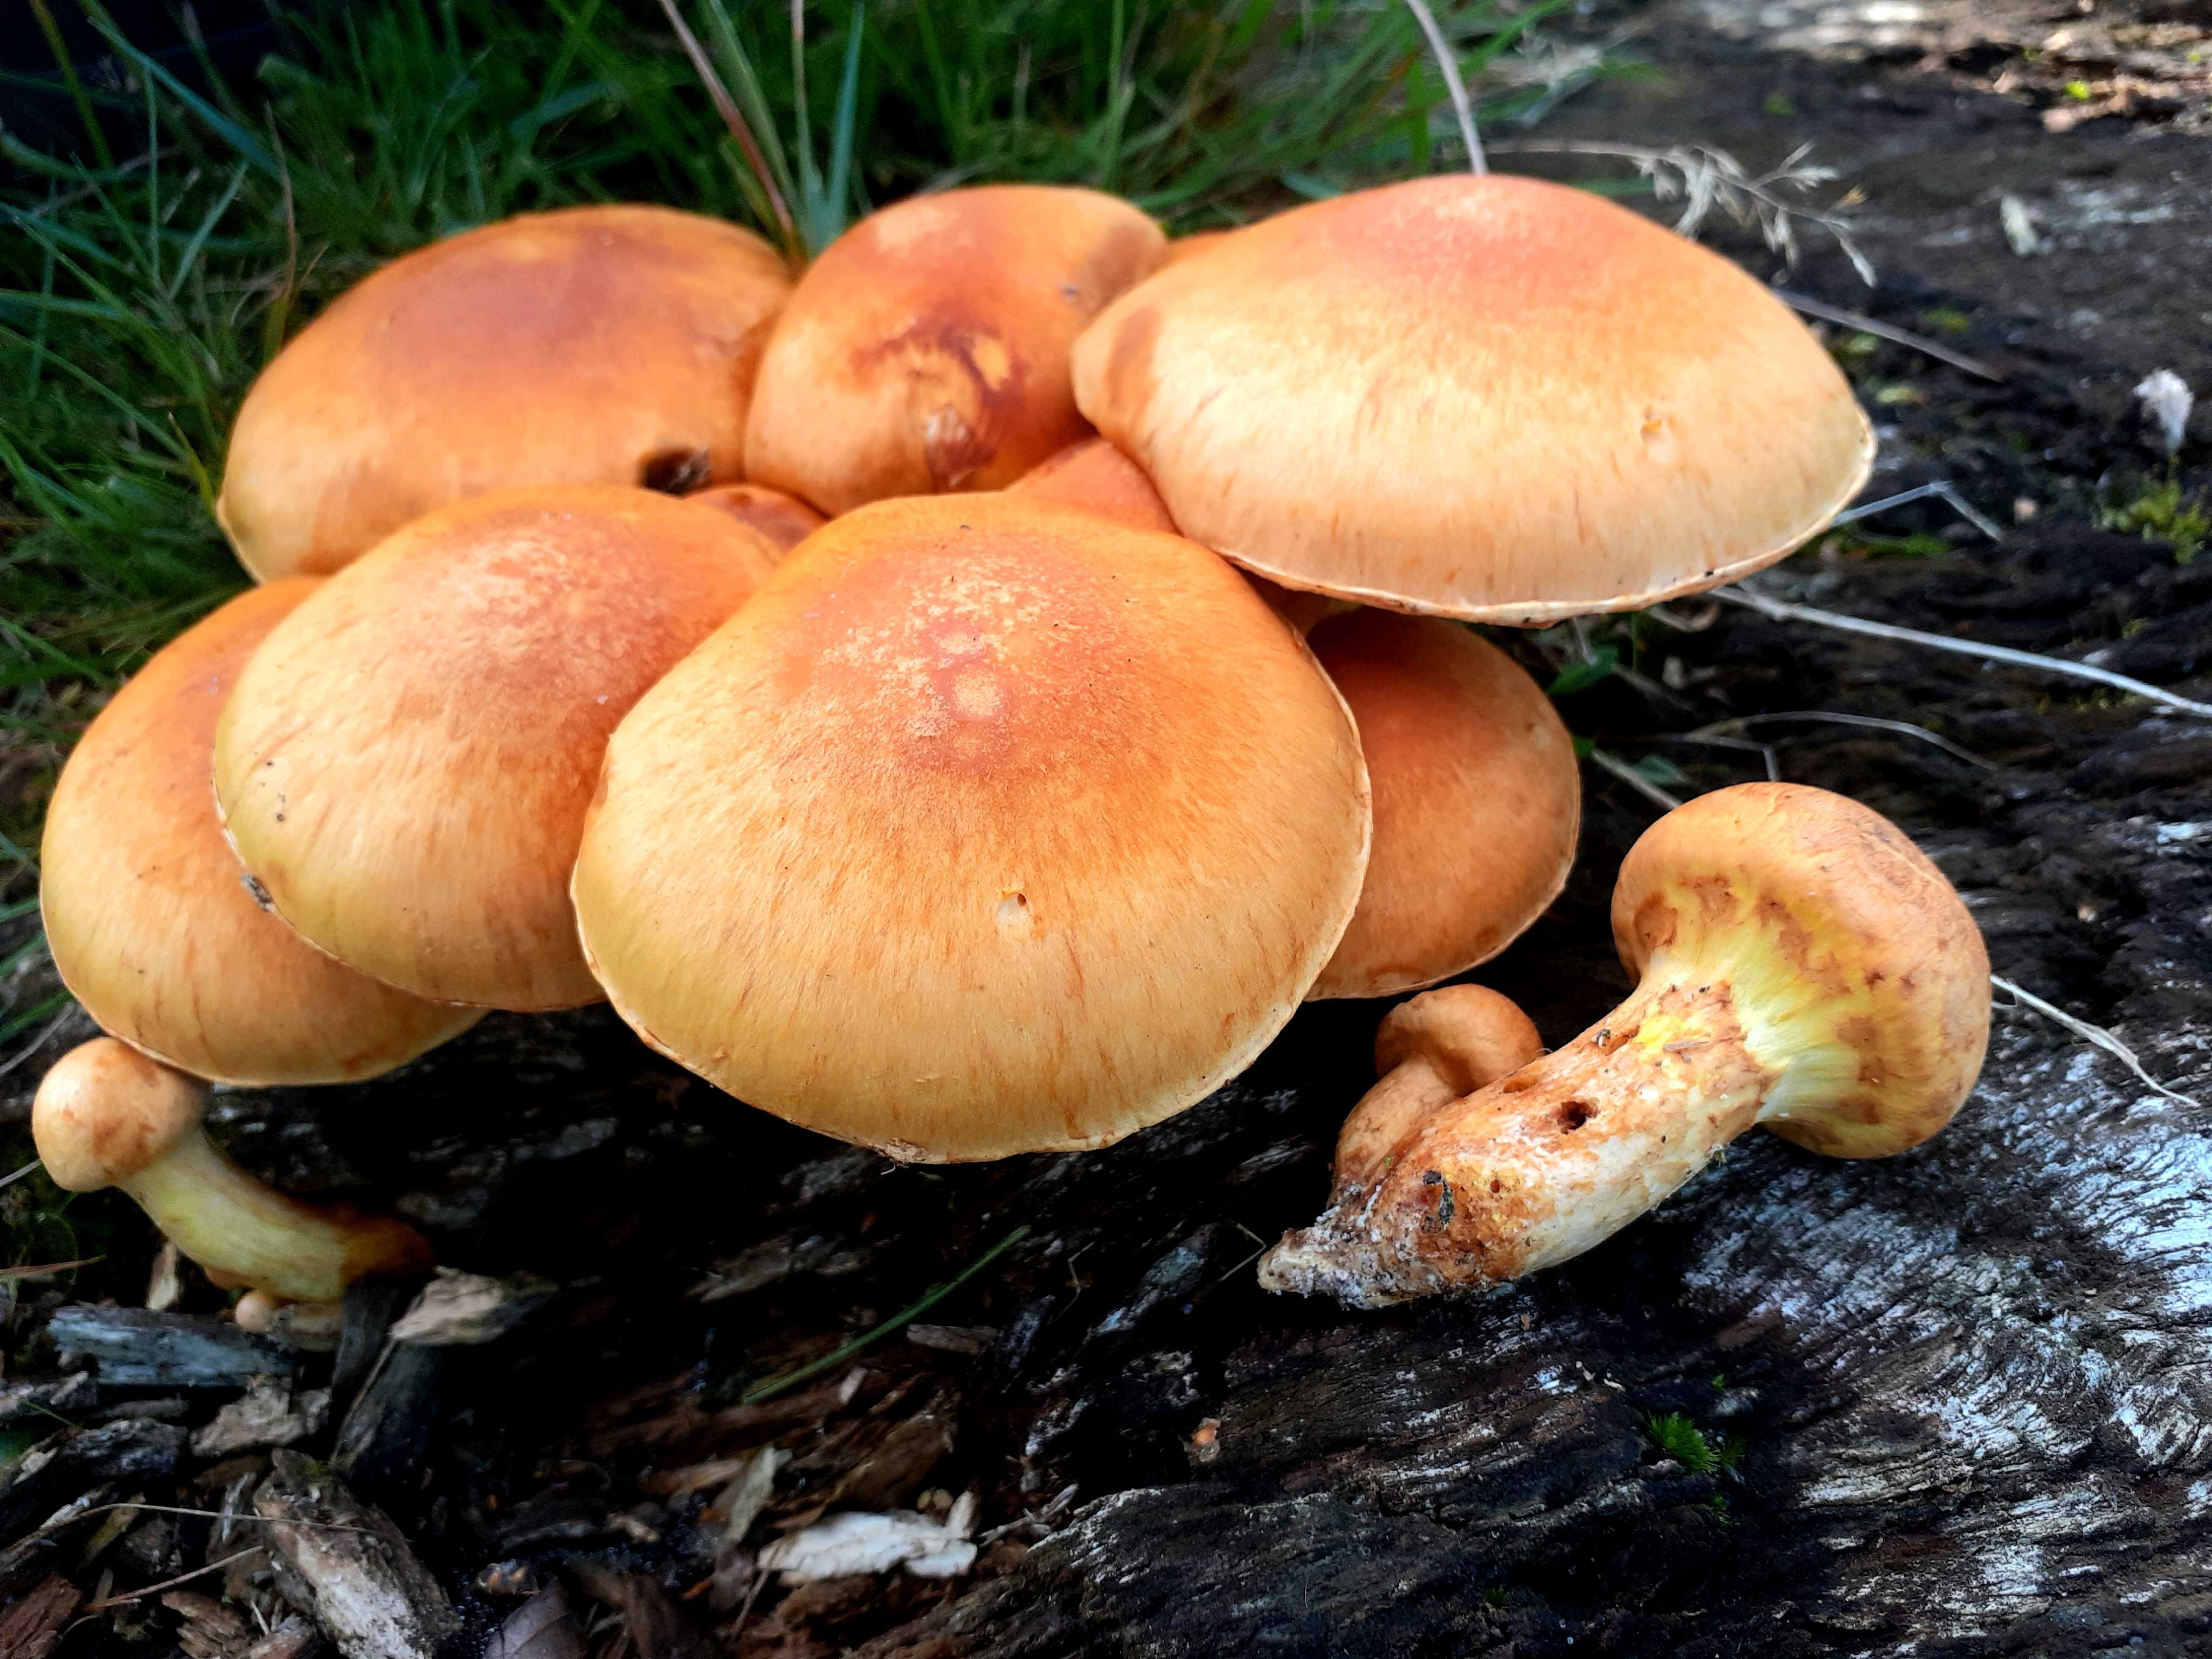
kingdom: Fungi
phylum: Basidiomycota
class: Agaricomycetes
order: Agaricales
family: Hymenogastraceae
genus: Gymnopilus
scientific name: Gymnopilus spectabilis
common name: fibret flammehat
